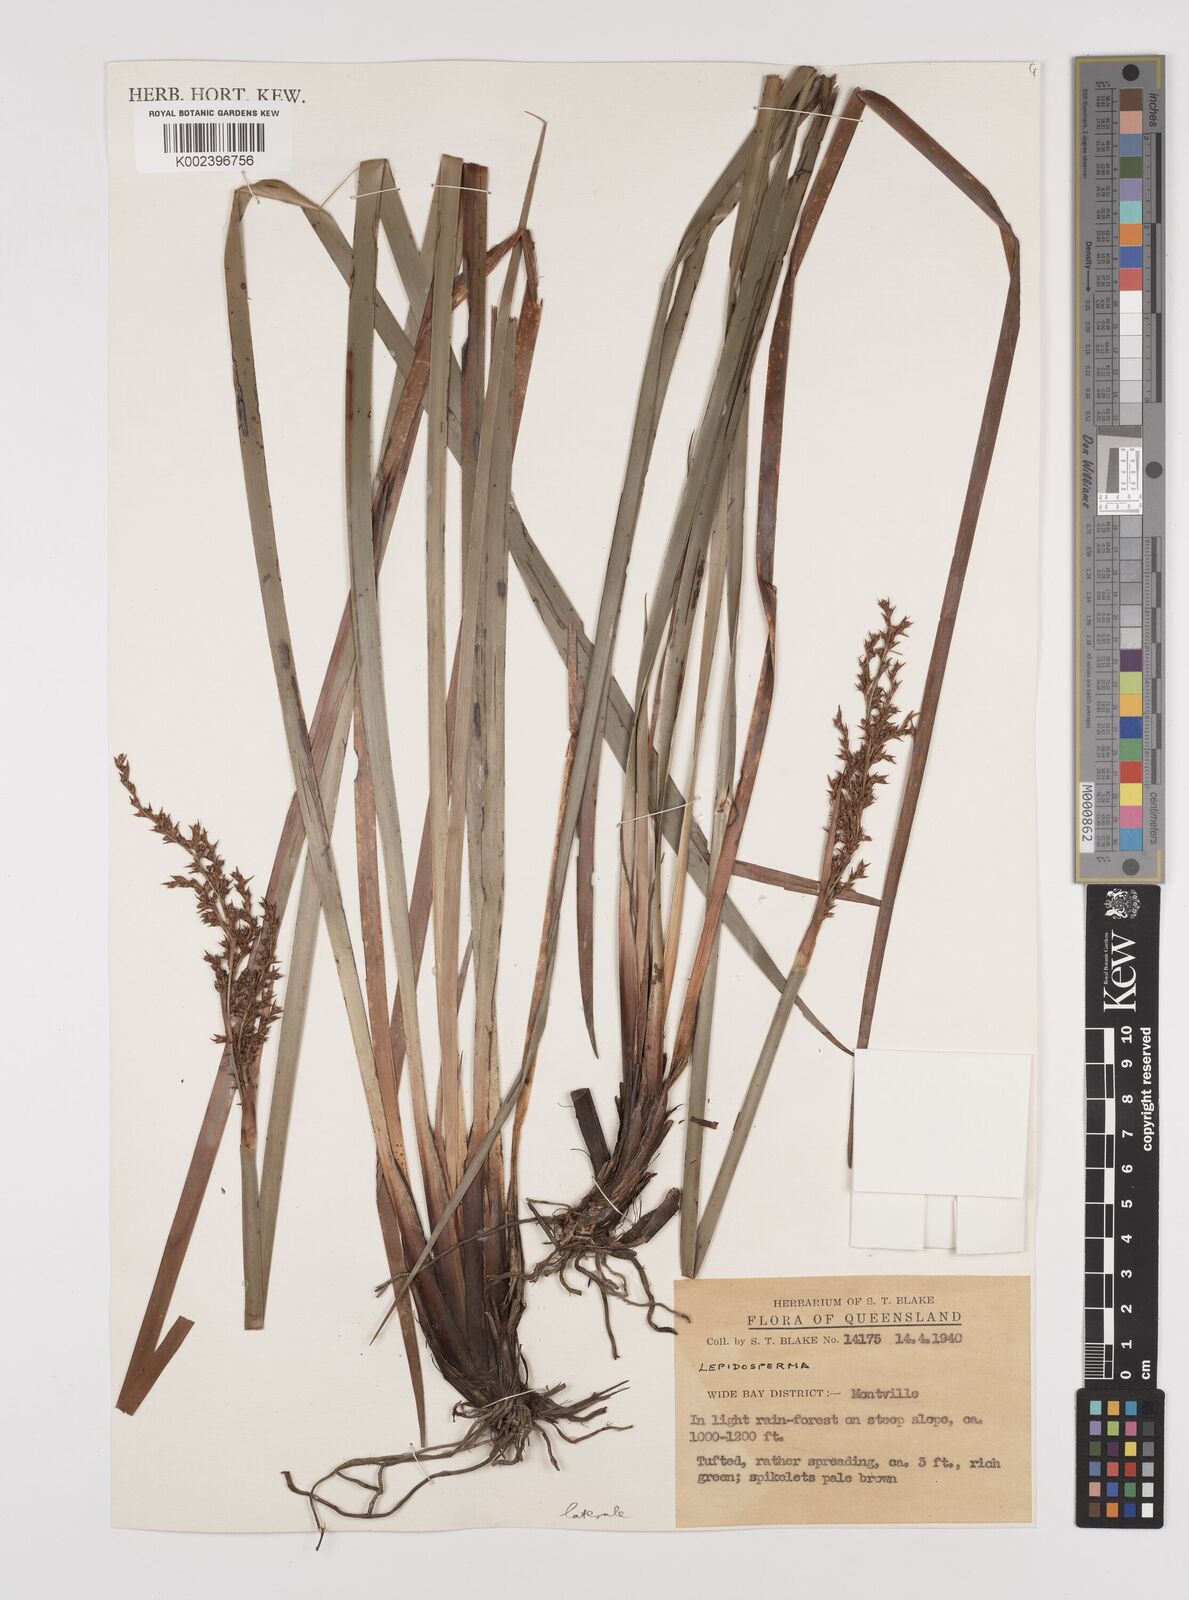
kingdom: Plantae
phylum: Tracheophyta
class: Liliopsida
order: Poales
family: Cyperaceae
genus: Lepidosperma
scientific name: Lepidosperma laterale
